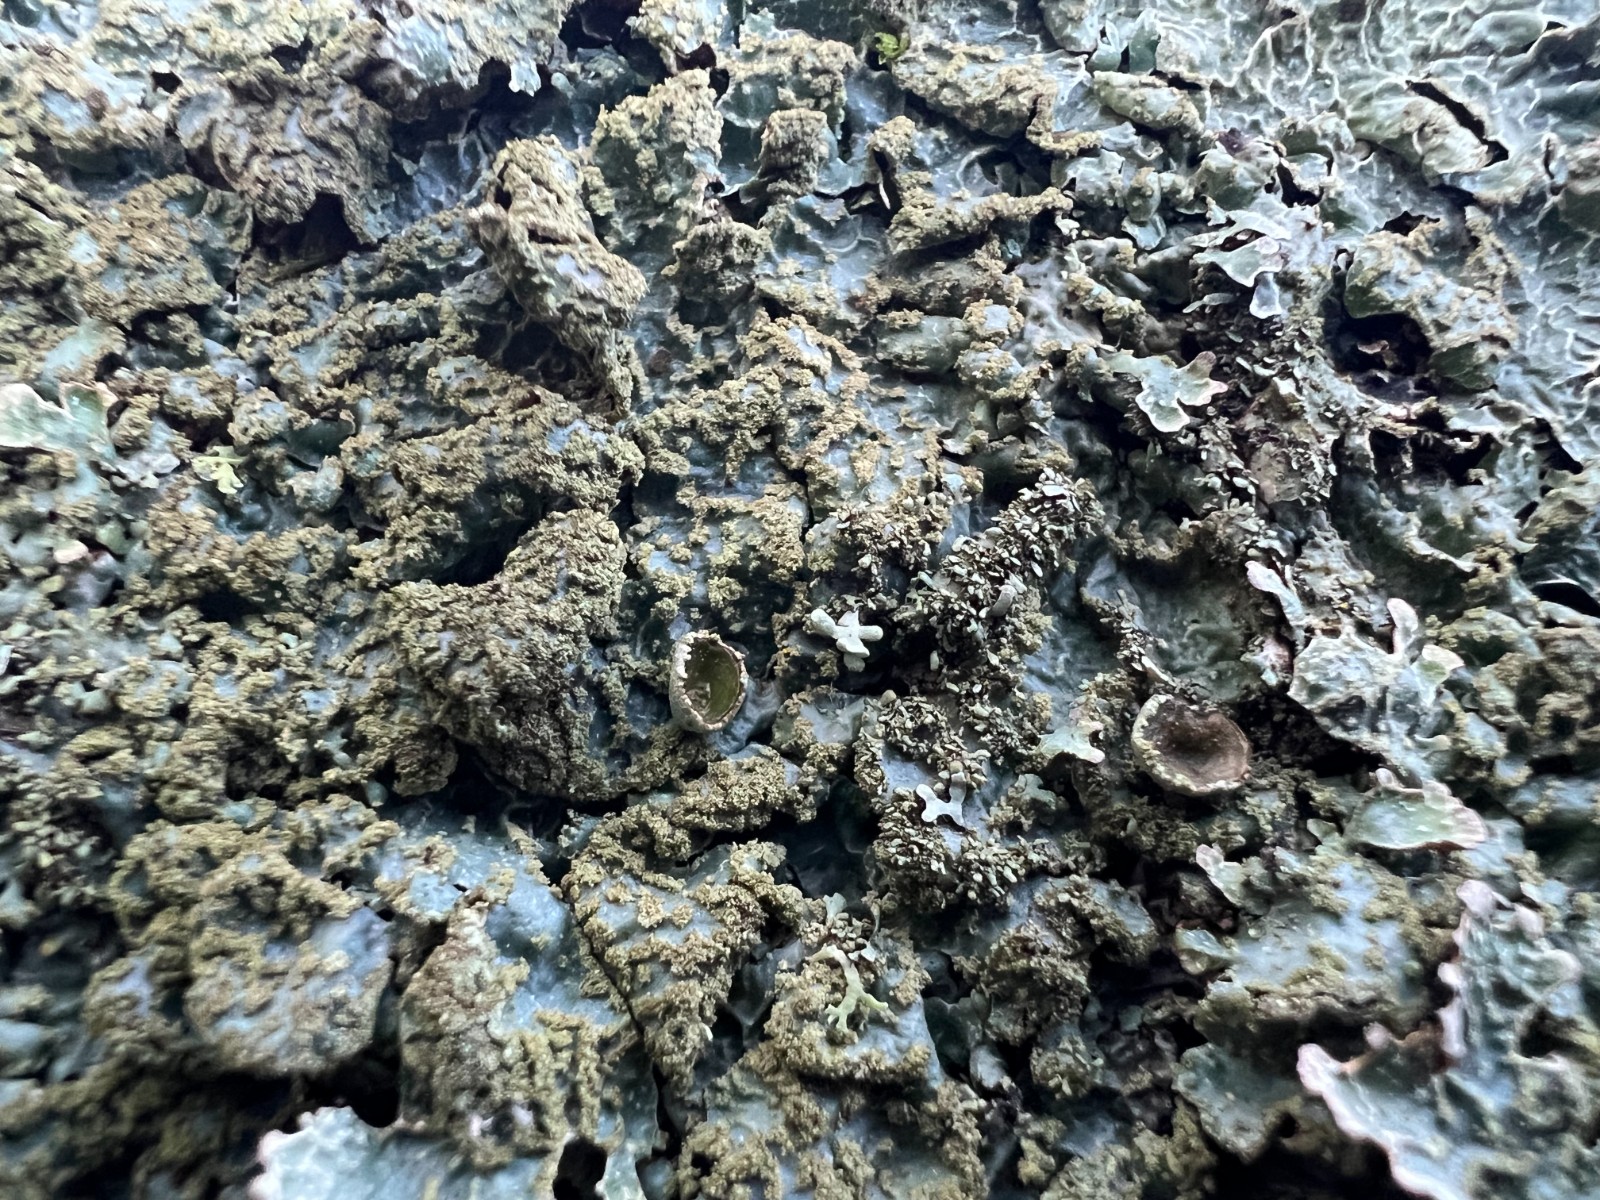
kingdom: Fungi
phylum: Ascomycota
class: Lecanoromycetes
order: Lecanorales
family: Parmeliaceae
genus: Parmelia
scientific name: Parmelia sulcata
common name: rynket skållav
